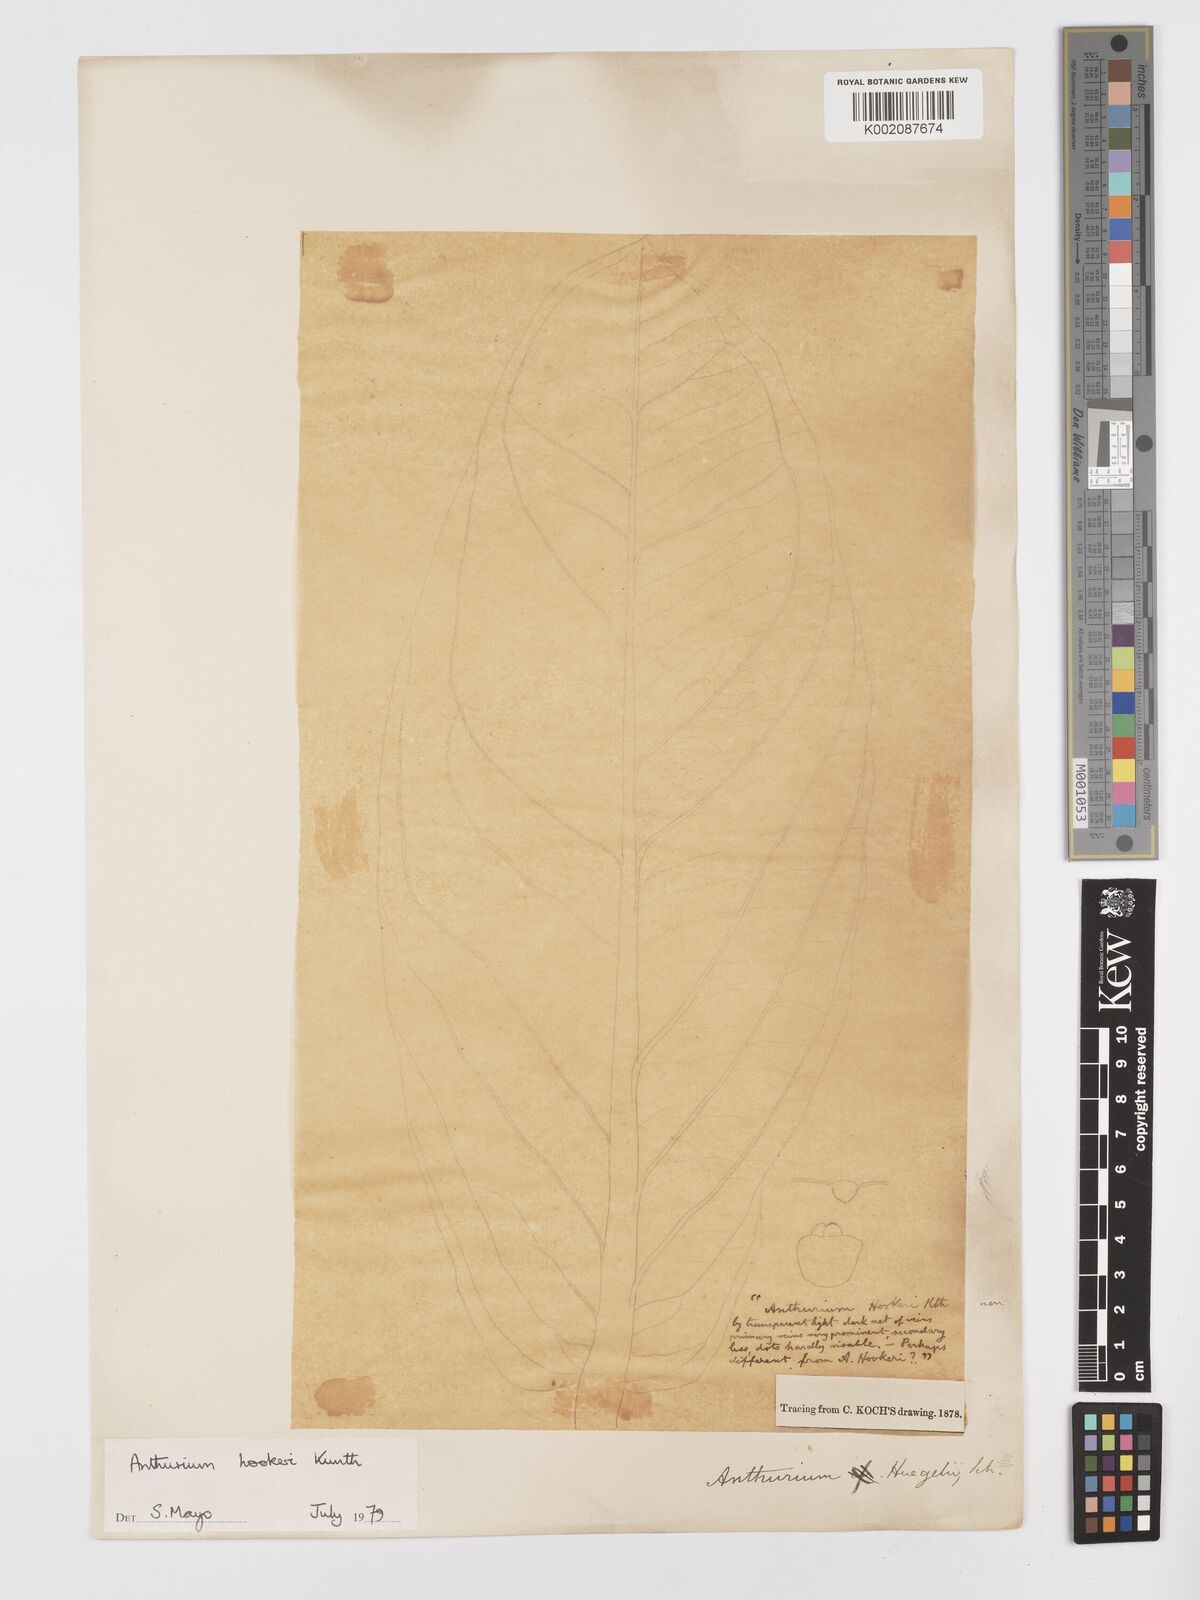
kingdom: Plantae
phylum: Tracheophyta
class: Liliopsida
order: Alismatales
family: Araceae
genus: Anthurium
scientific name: Anthurium hookeri
